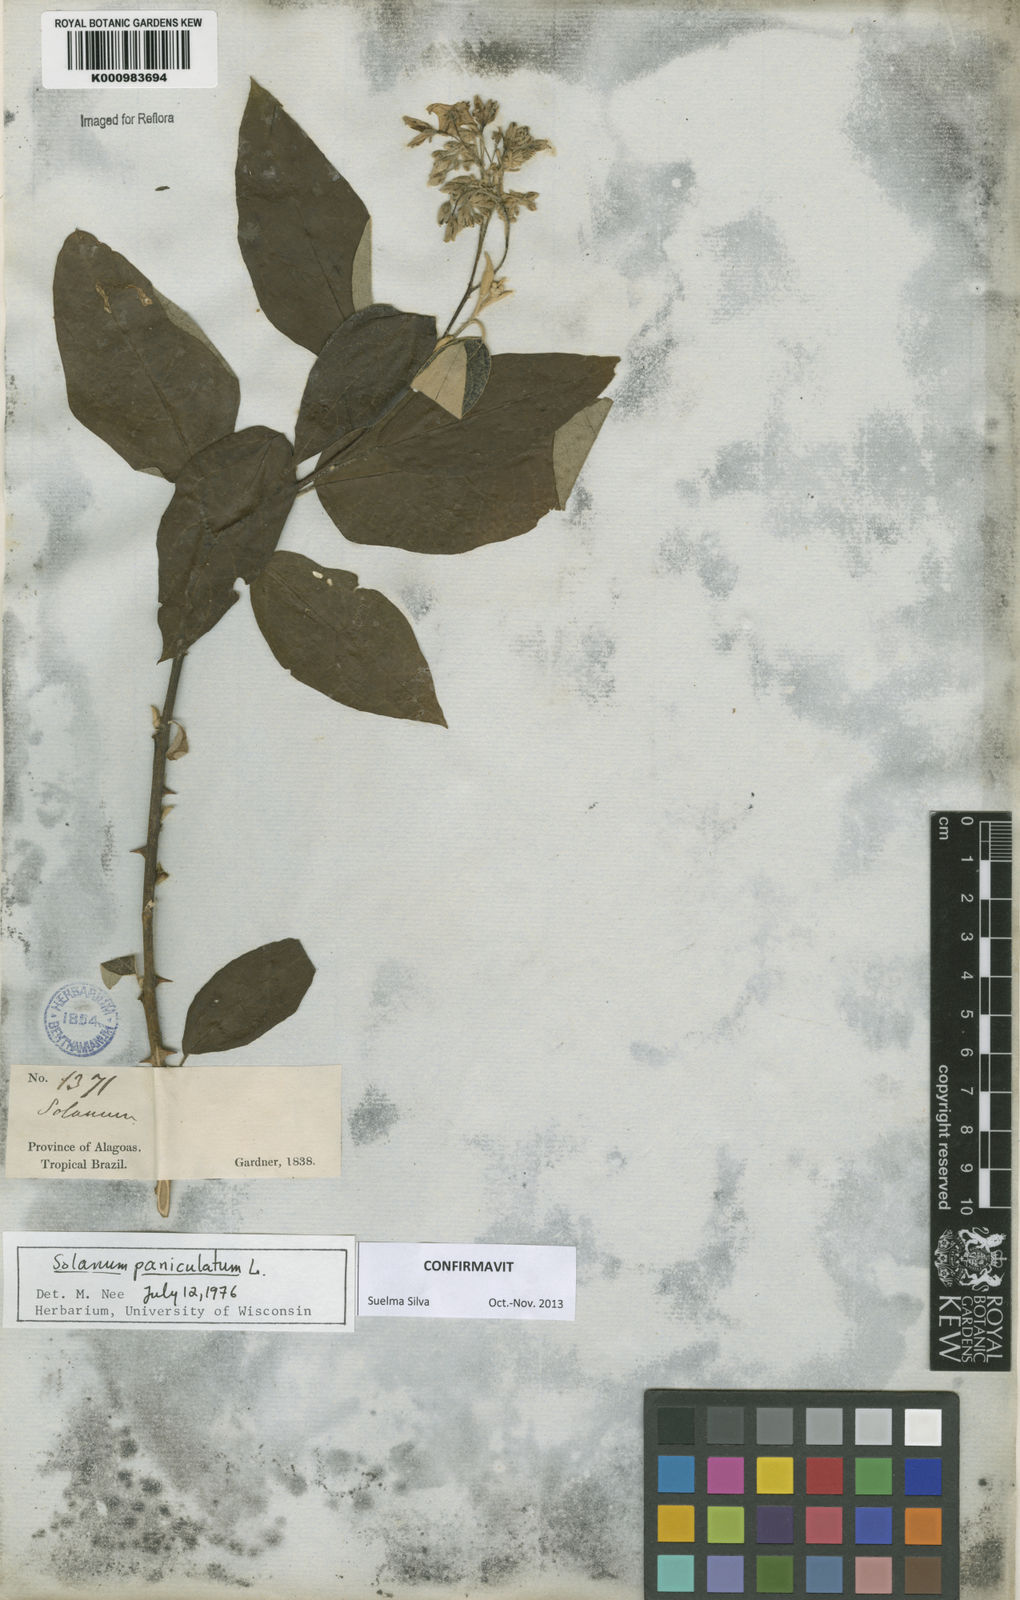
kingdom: Plantae
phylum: Tracheophyta
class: Magnoliopsida
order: Solanales
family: Solanaceae
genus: Solanum
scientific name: Solanum paniculatum
